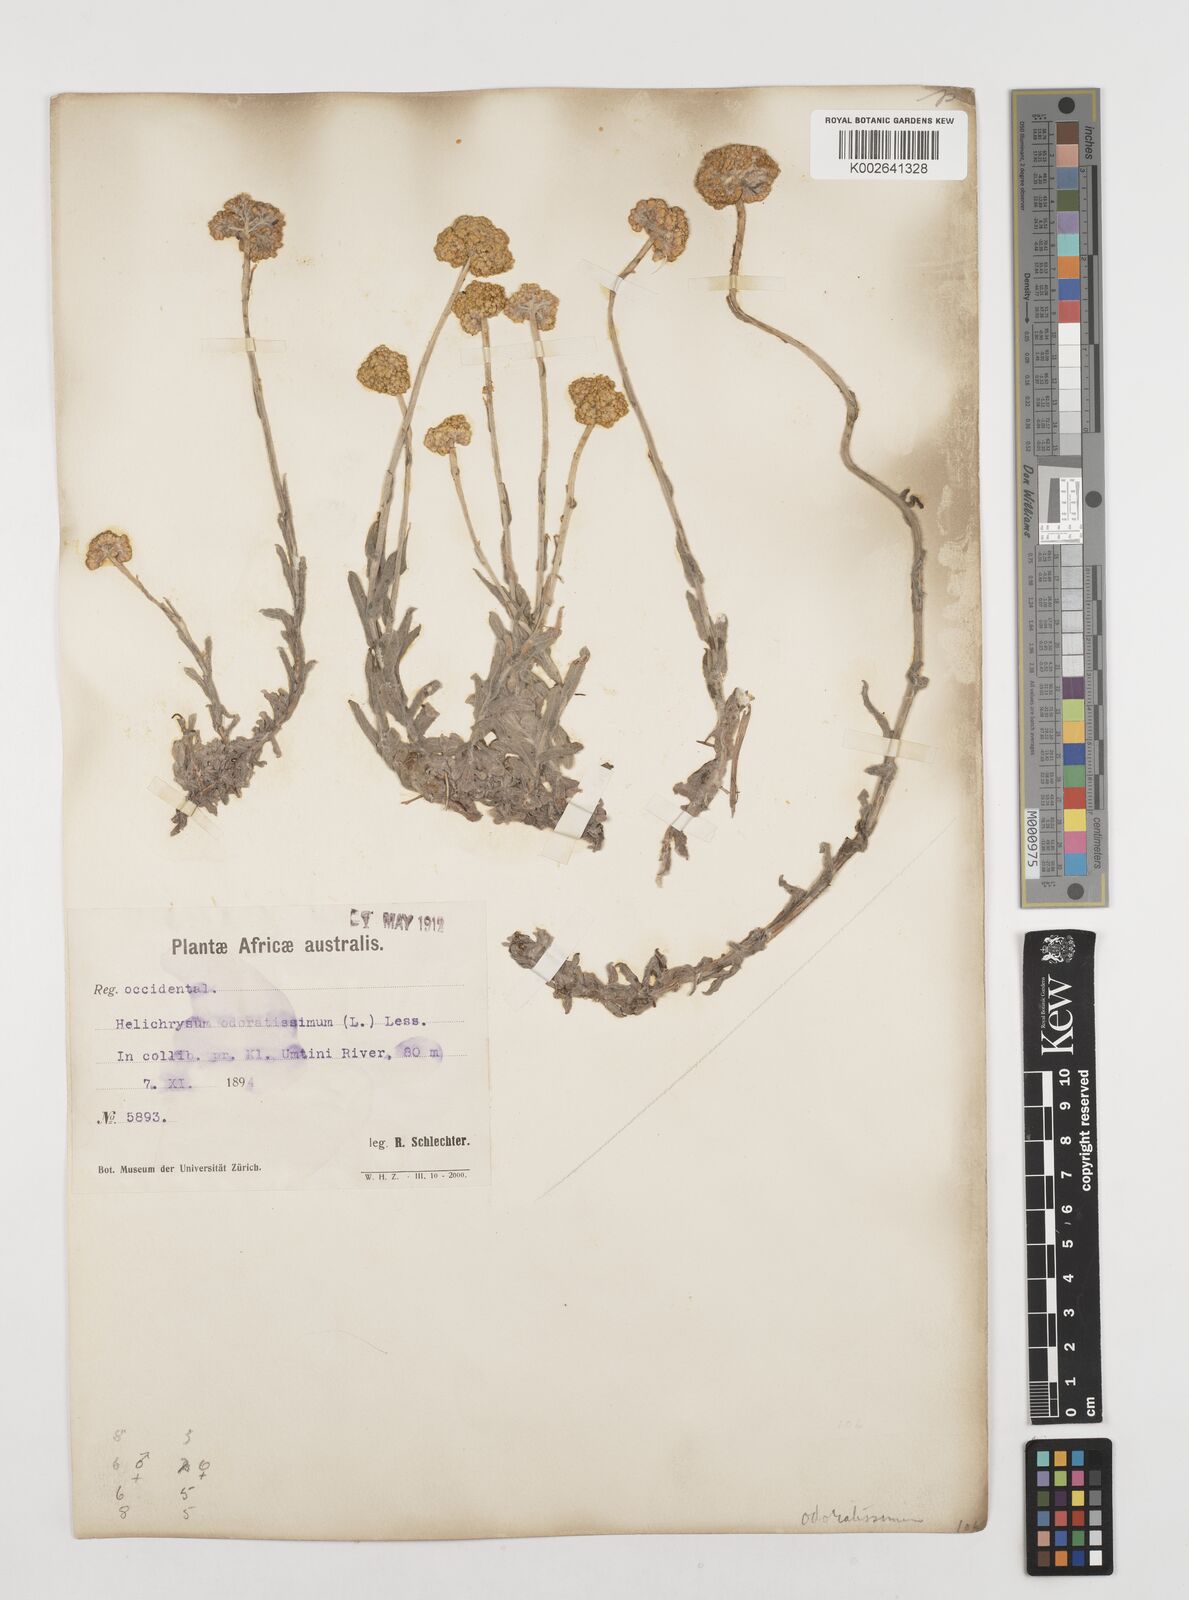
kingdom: Plantae
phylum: Tracheophyta
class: Magnoliopsida
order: Asterales
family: Asteraceae
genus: Helichrysum
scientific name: Helichrysum odoratissimum
